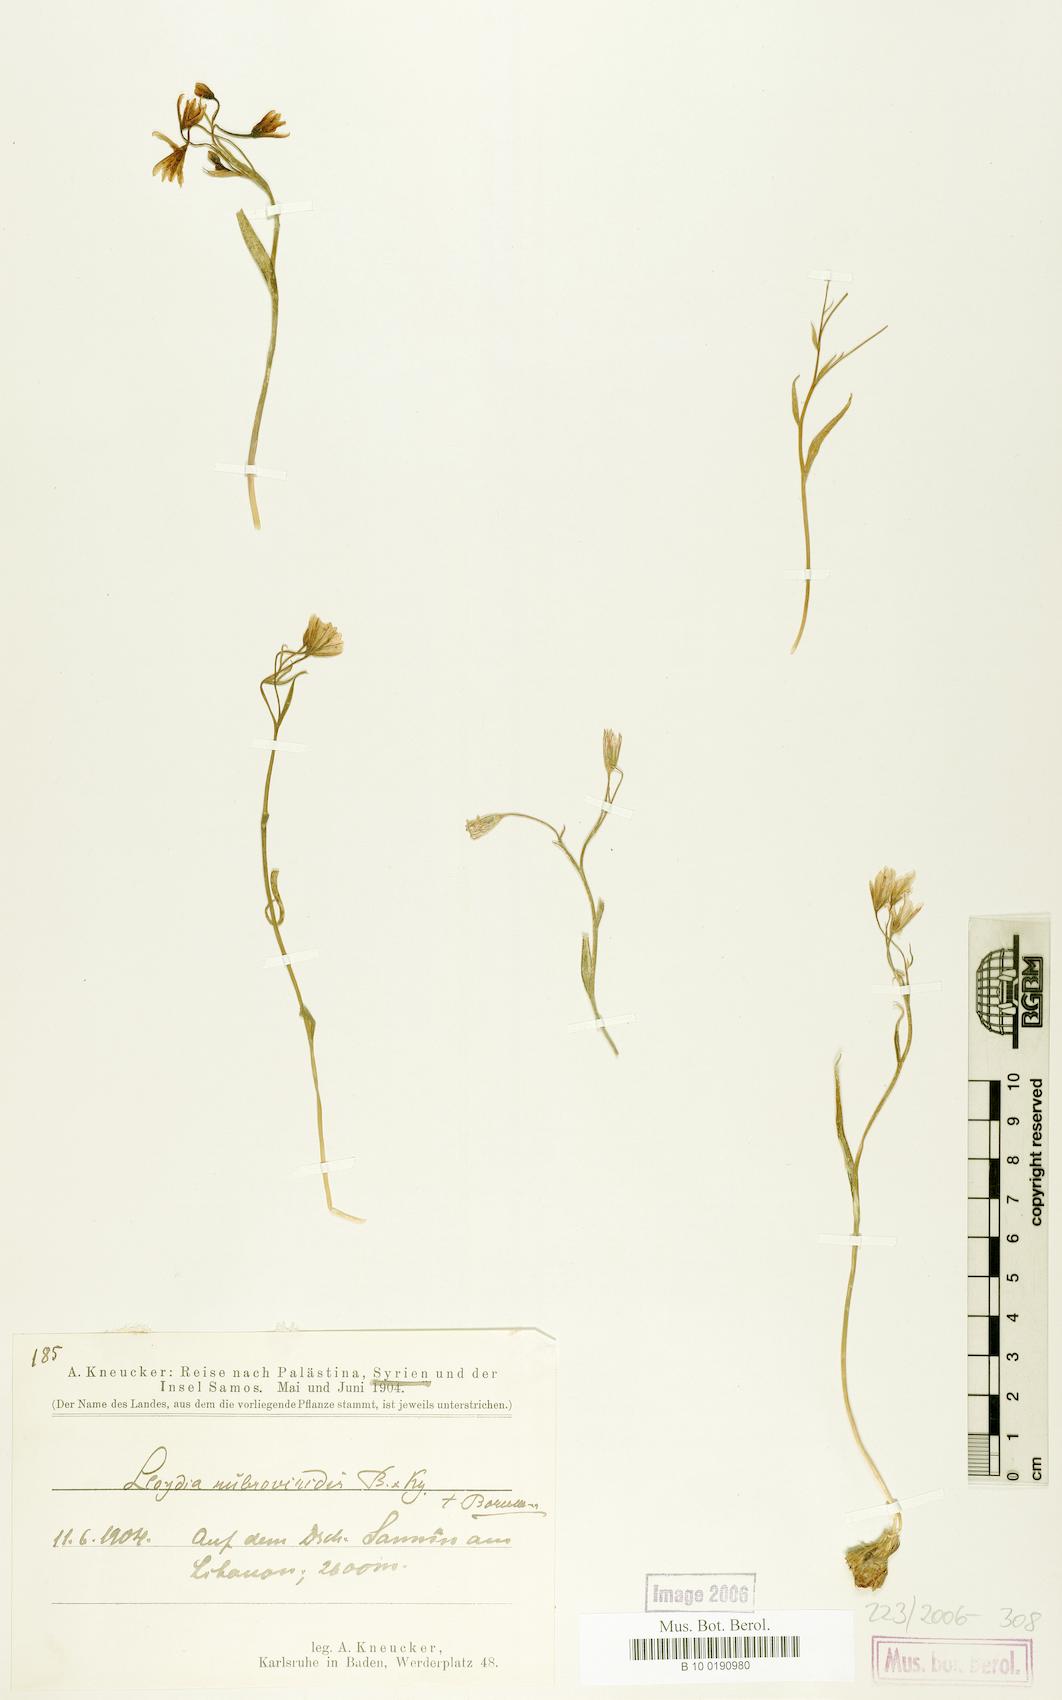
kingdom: Plantae
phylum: Tracheophyta
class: Liliopsida
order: Liliales
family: Liliaceae
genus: Gagea
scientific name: Gagea libanotica
